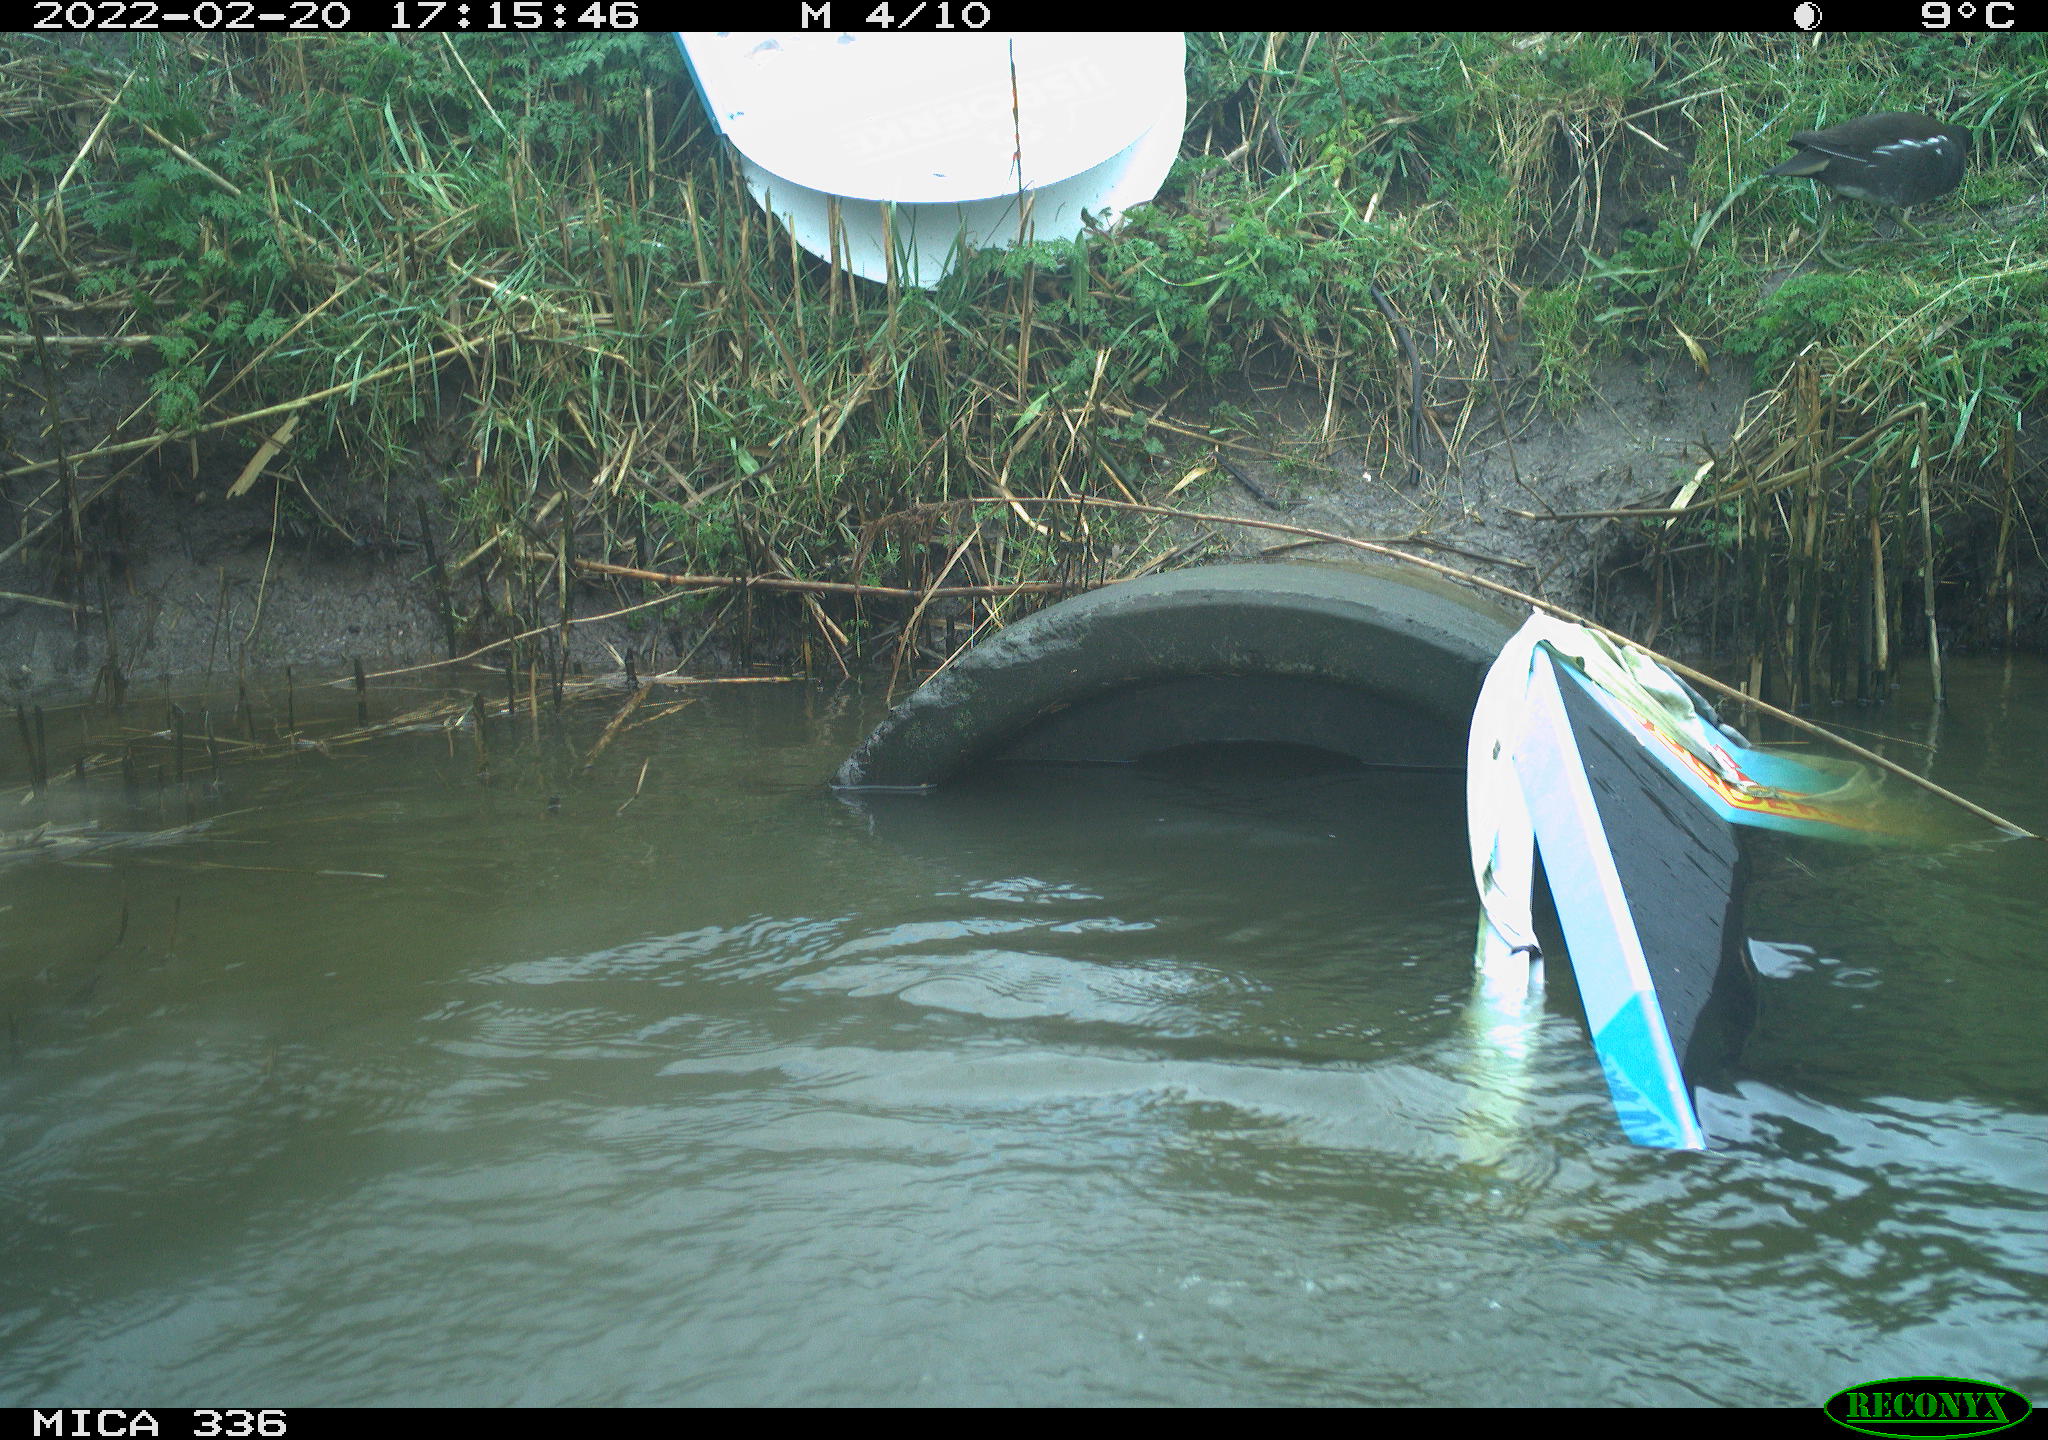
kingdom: Animalia
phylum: Chordata
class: Aves
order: Gruiformes
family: Rallidae
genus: Gallinula
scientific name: Gallinula chloropus
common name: Common moorhen
